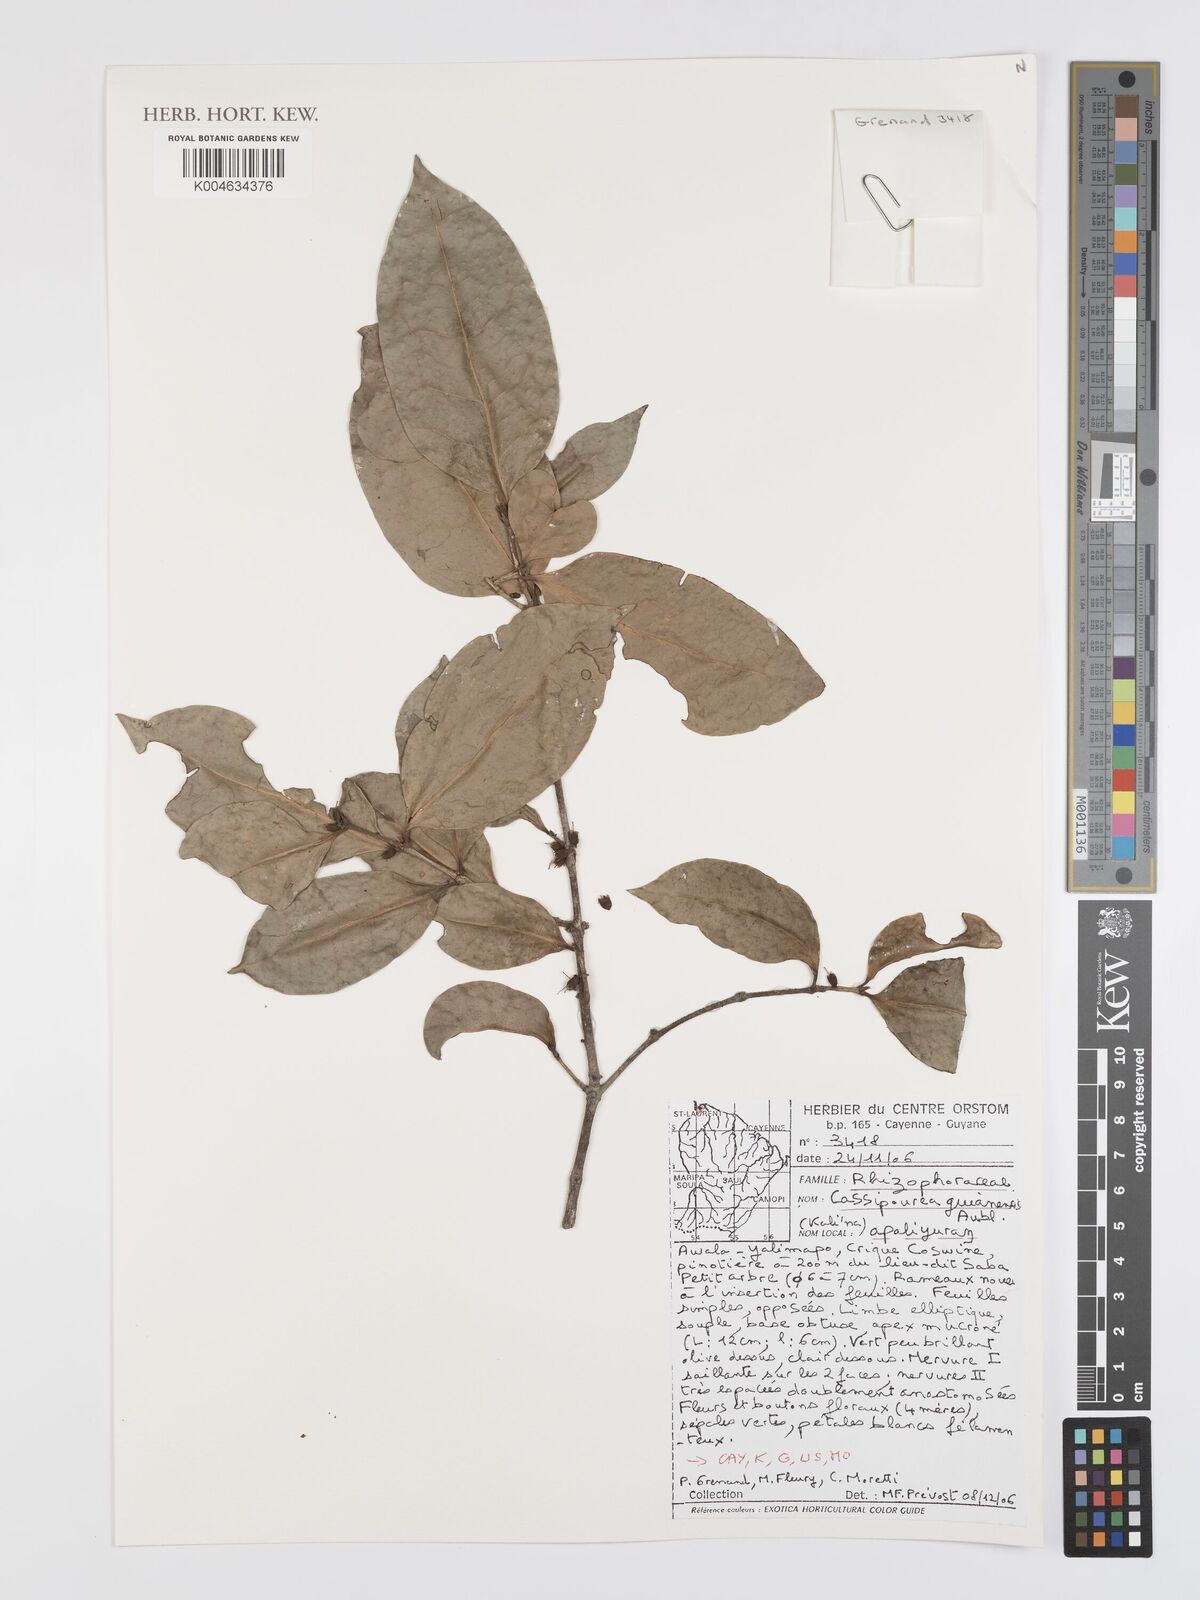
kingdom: Plantae
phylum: Tracheophyta
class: Magnoliopsida
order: Malpighiales
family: Rhizophoraceae
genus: Cassipourea
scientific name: Cassipourea guianensis
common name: Bastard waterwood
